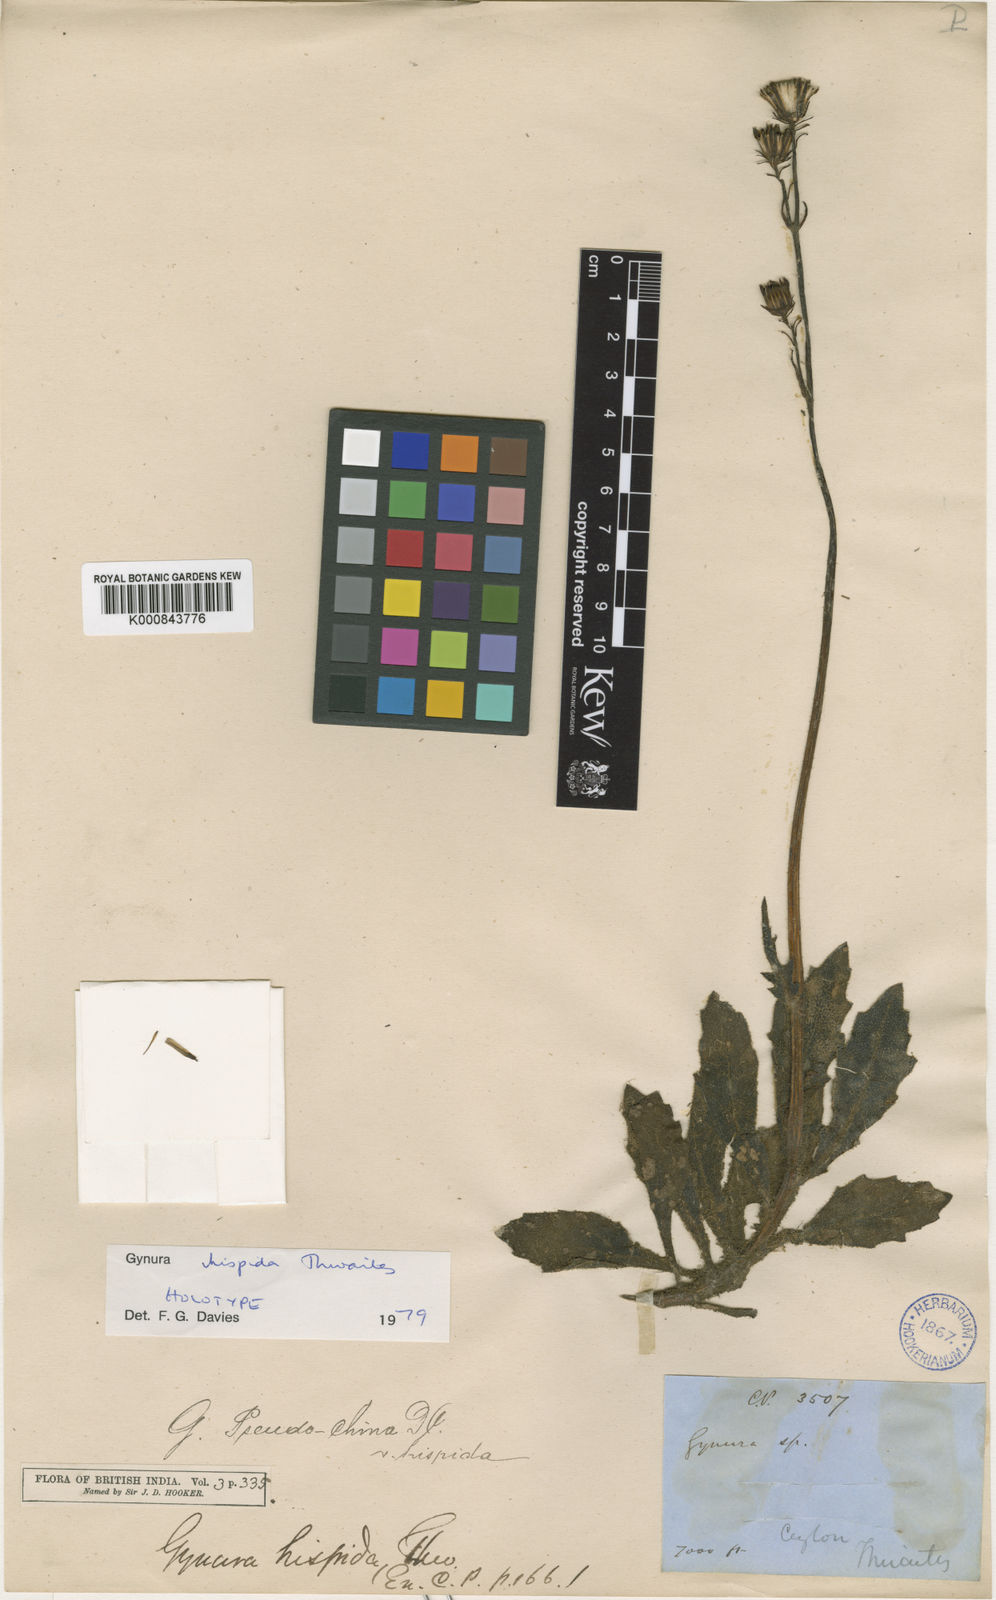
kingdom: Plantae
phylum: Tracheophyta
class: Magnoliopsida
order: Asterales
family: Asteraceae
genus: Gynura
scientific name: Gynura hispida
